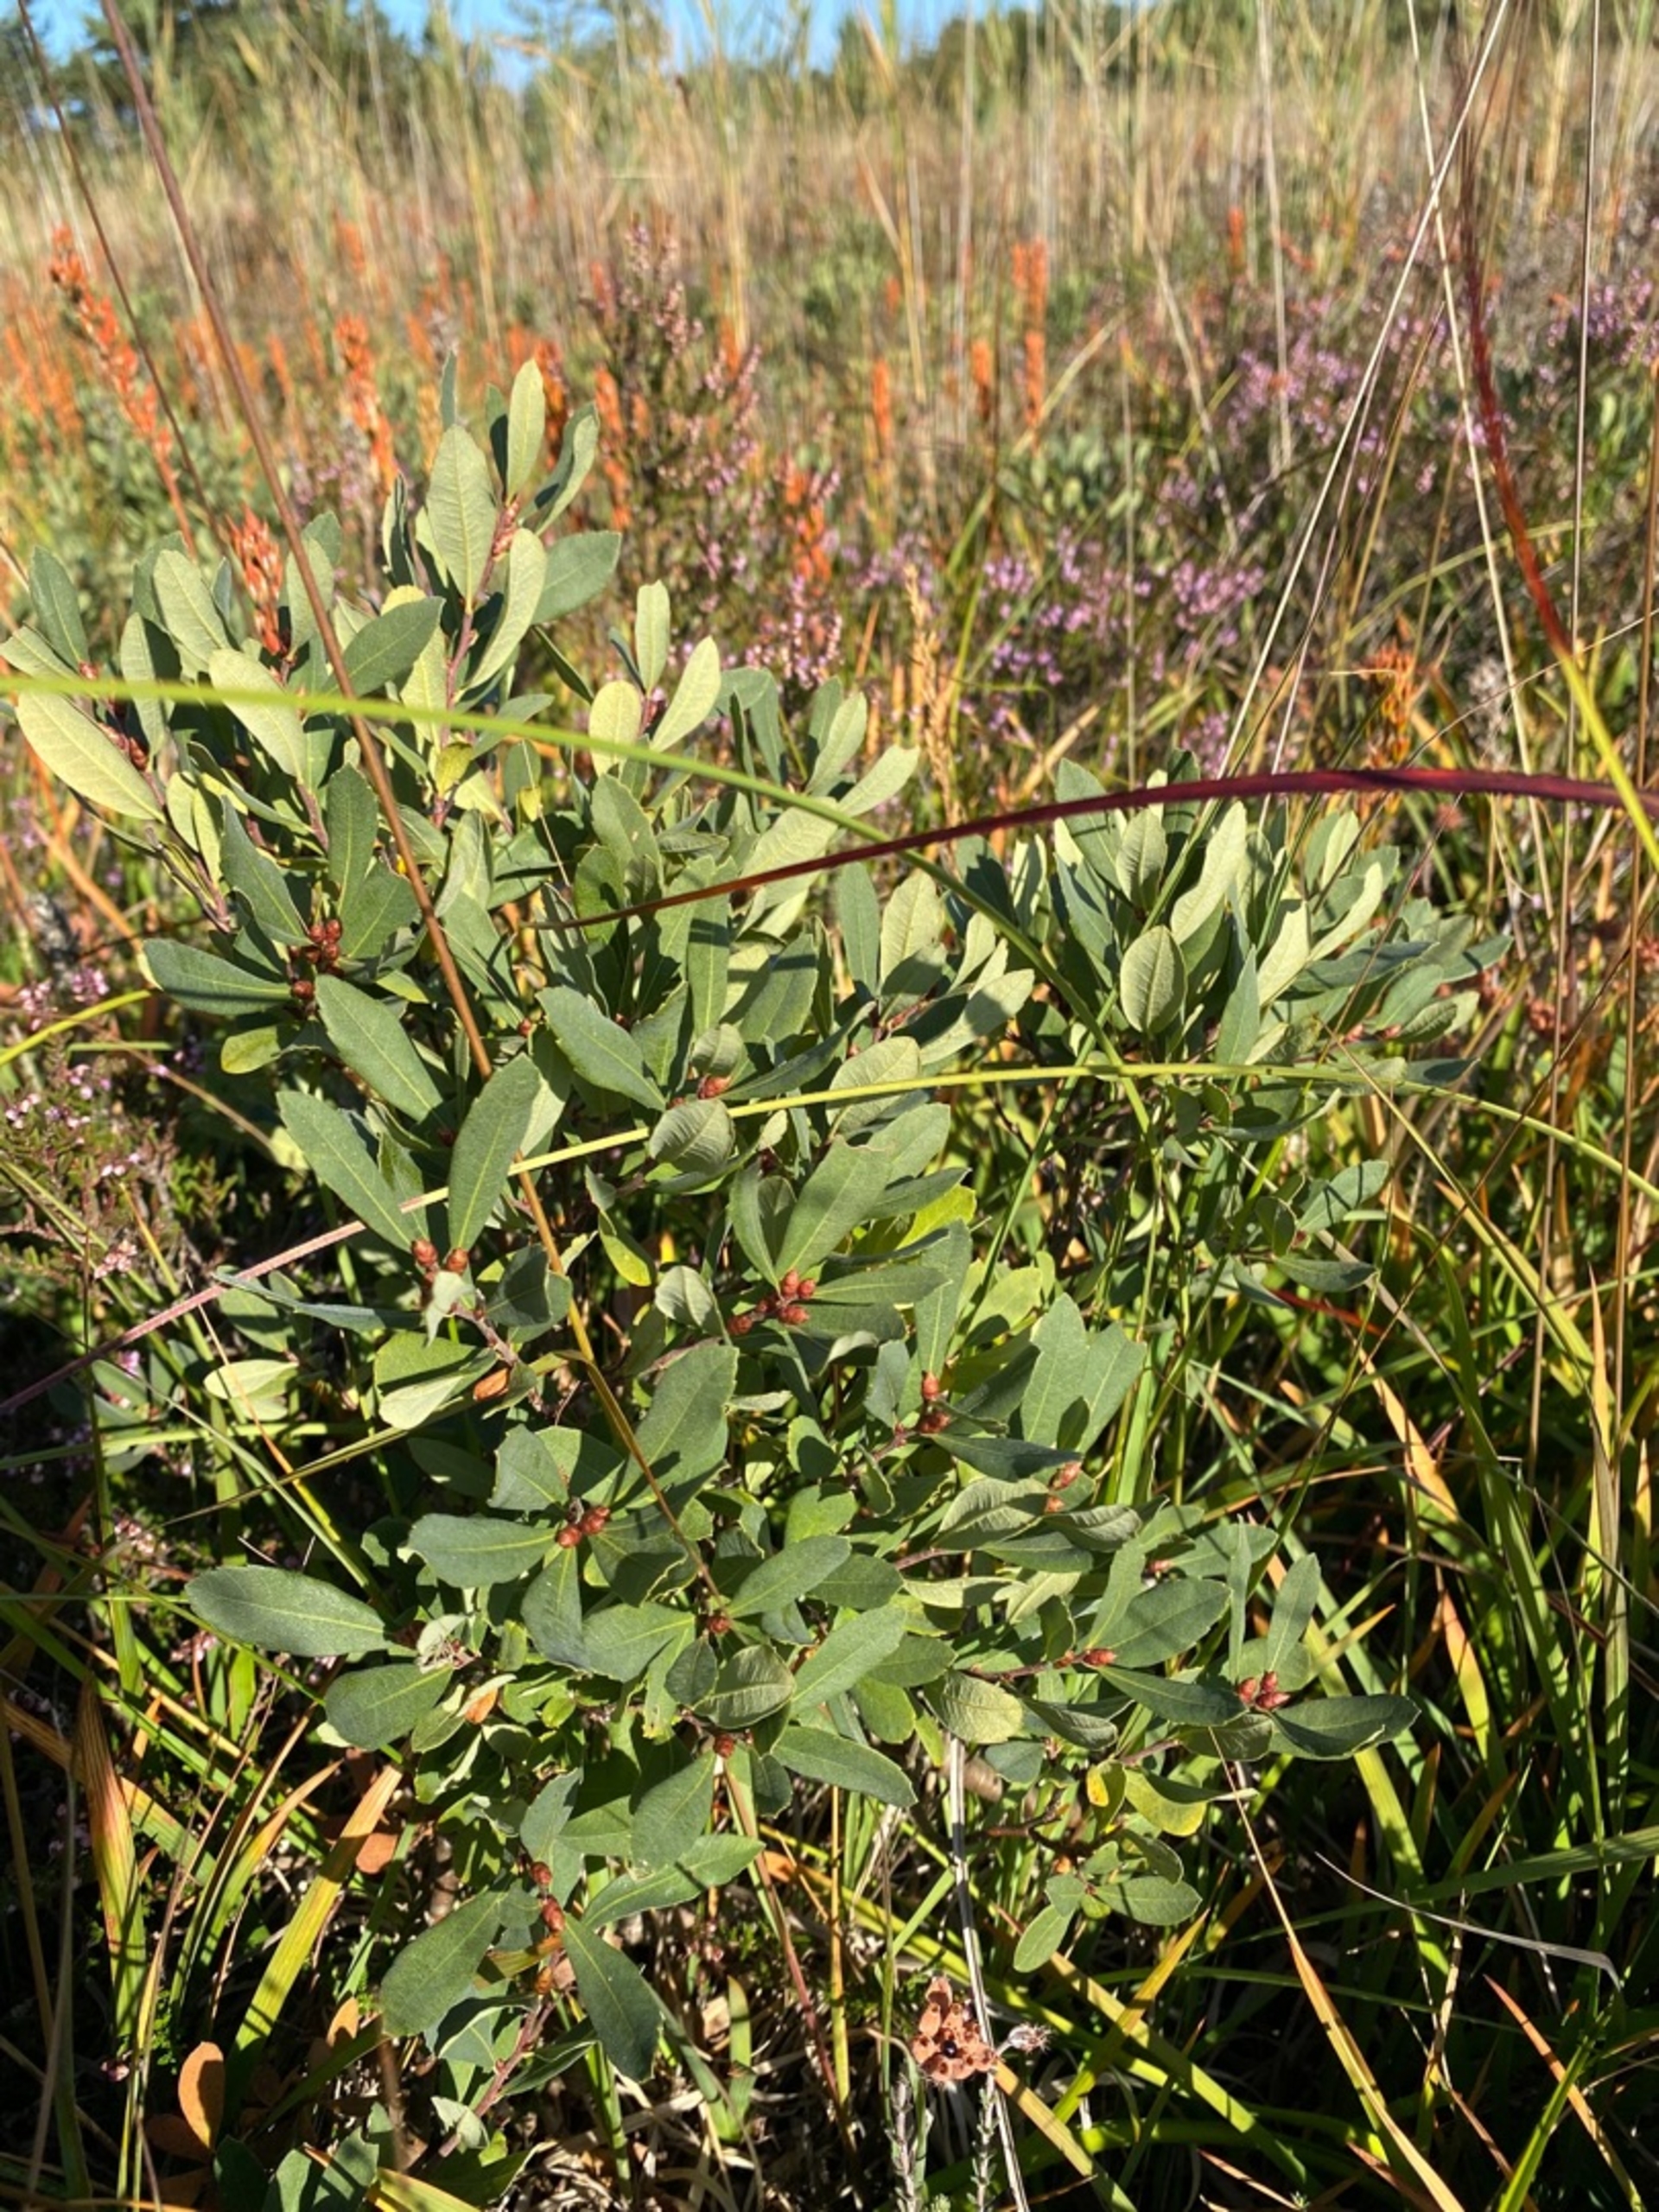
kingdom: Plantae
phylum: Tracheophyta
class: Magnoliopsida
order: Fagales
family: Myricaceae
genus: Myrica
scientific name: Myrica gale
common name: Pors
